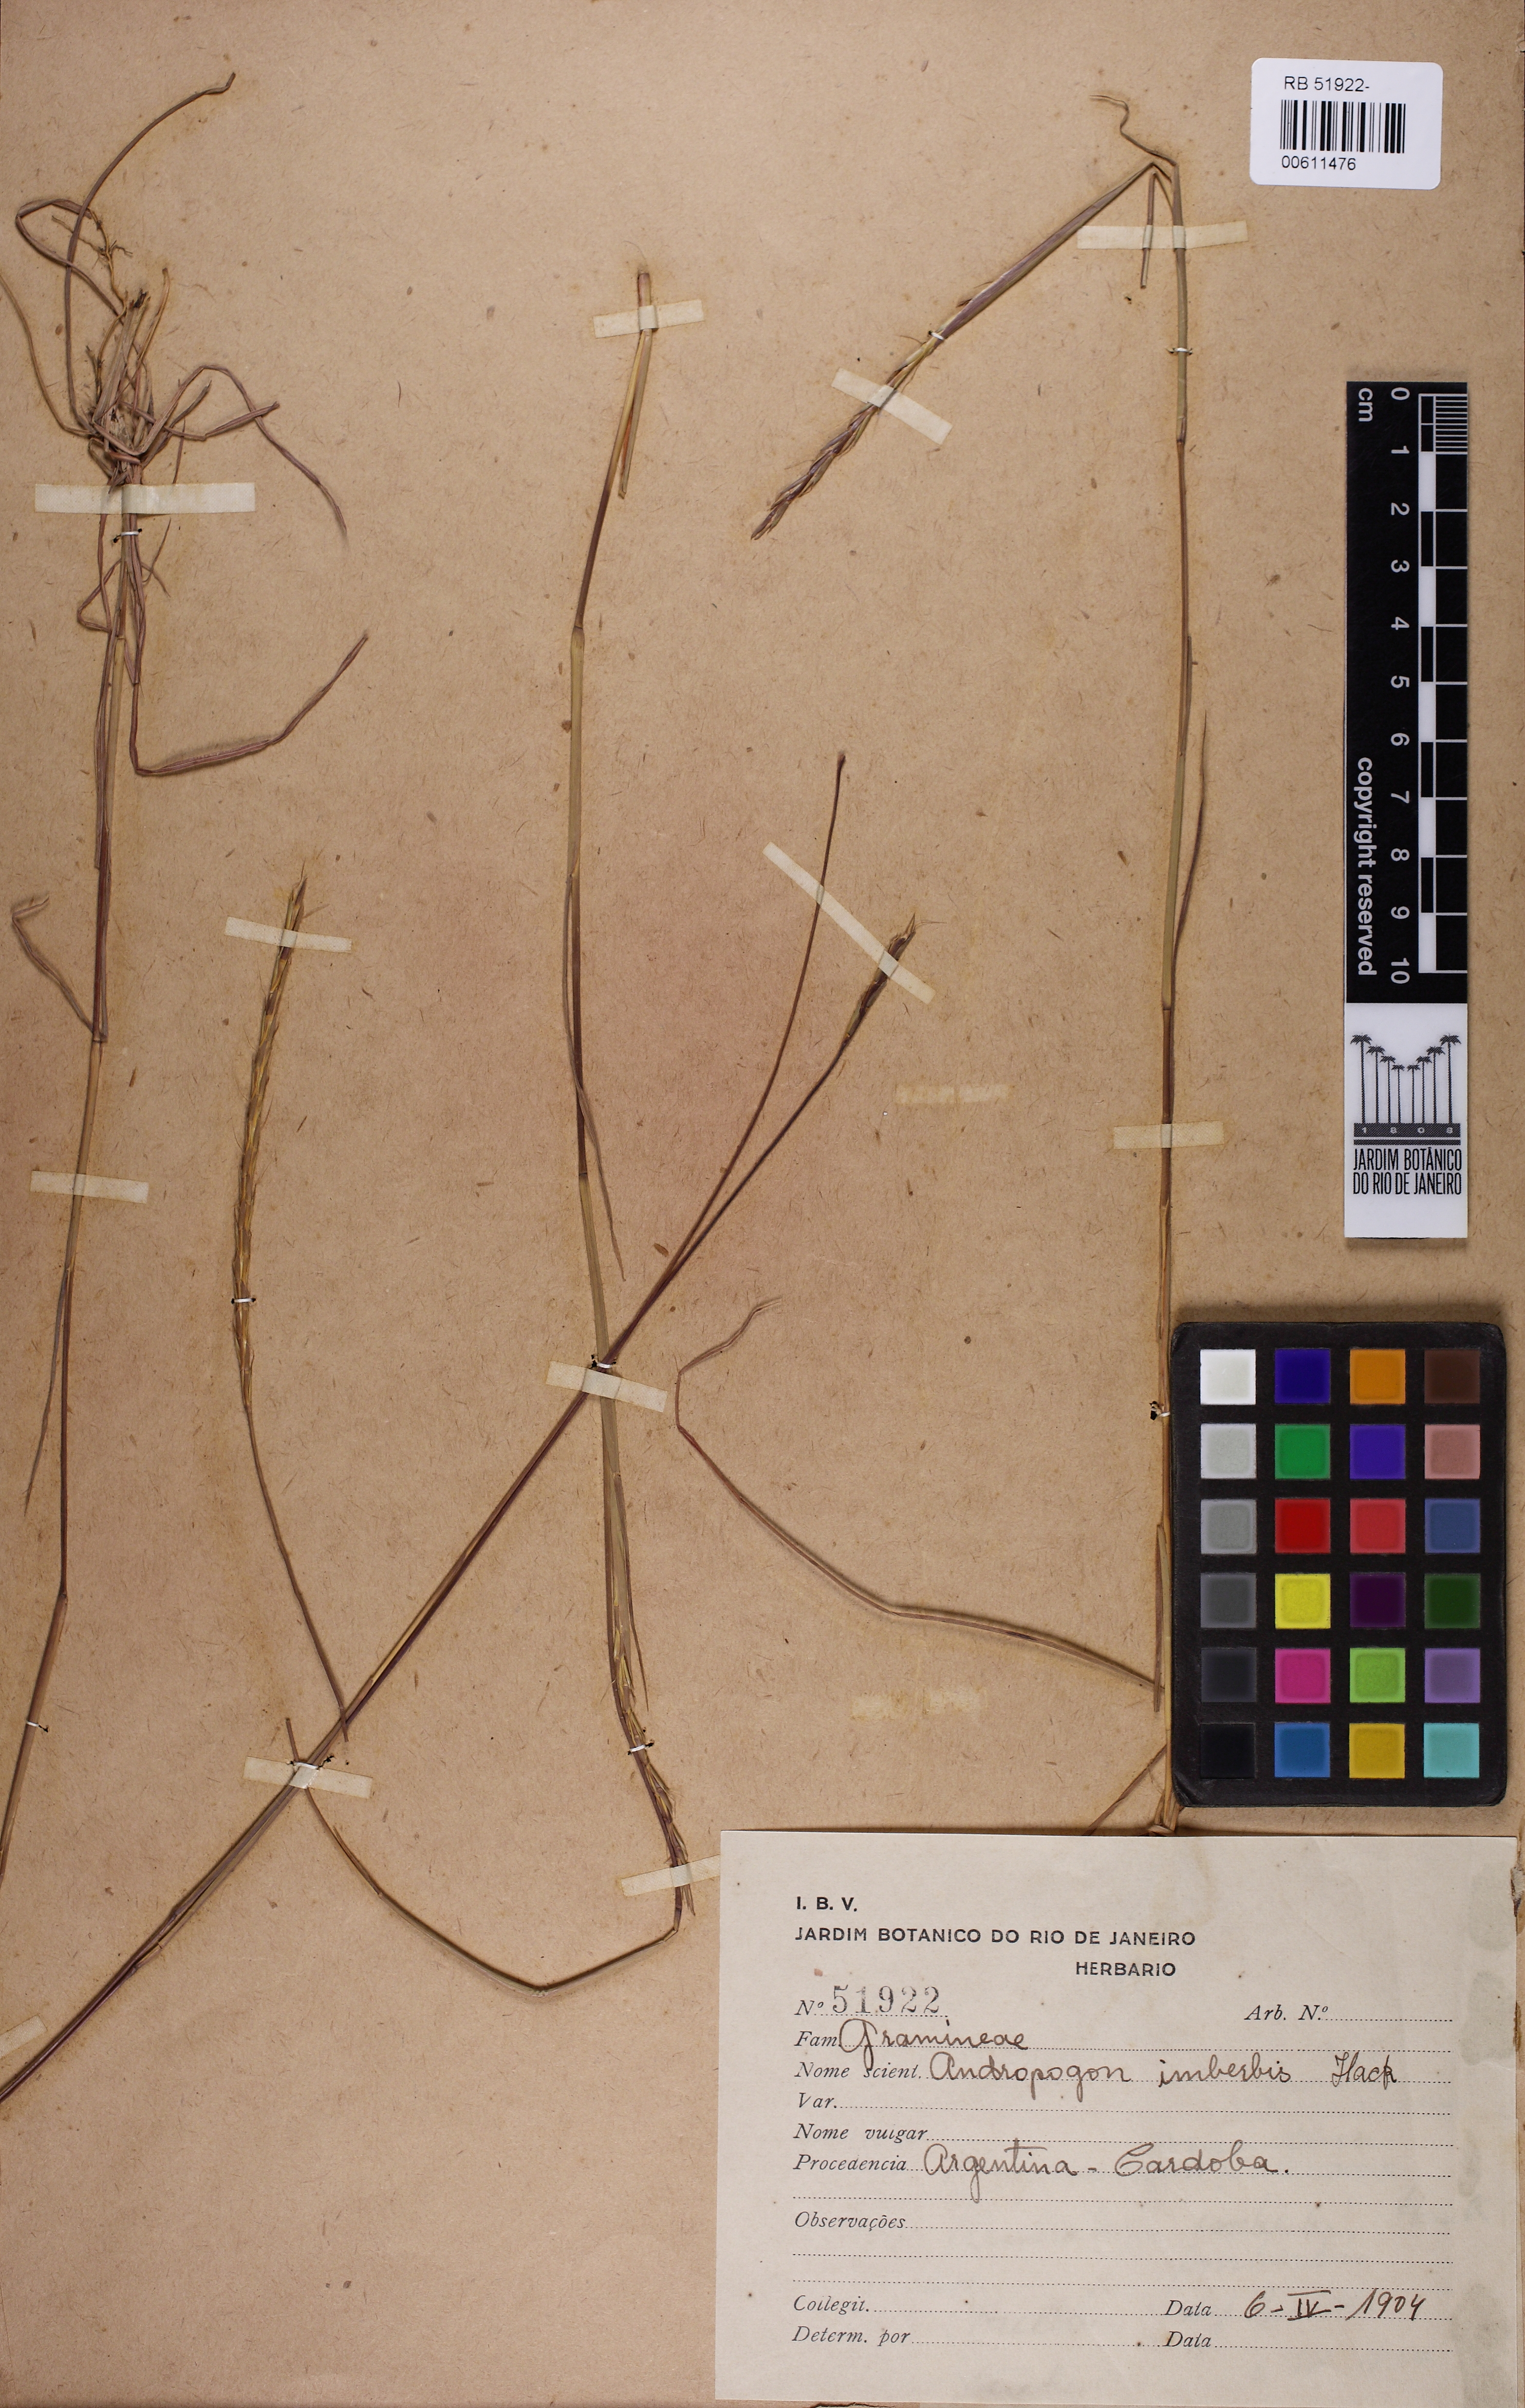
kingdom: Plantae
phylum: Tracheophyta
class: Liliopsida
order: Poales
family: Poaceae
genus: Andropogon
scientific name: Andropogon salzmannii
